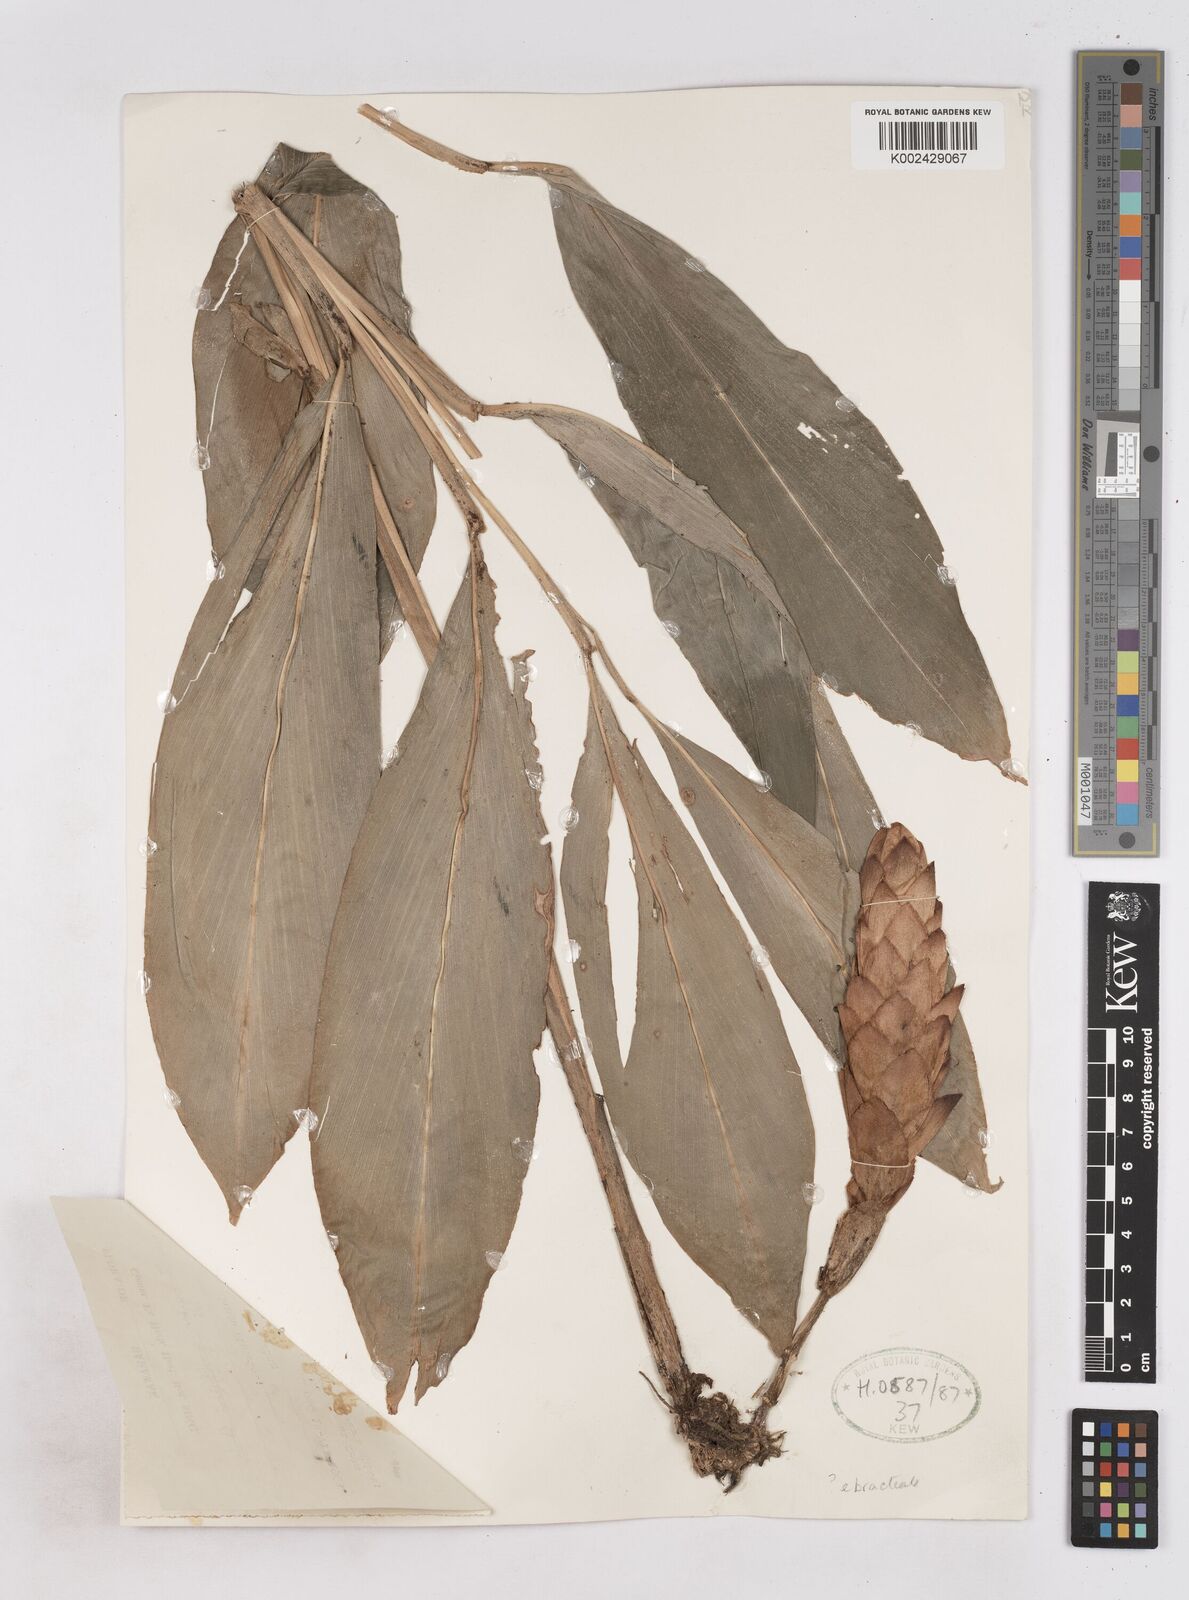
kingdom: Plantae
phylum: Tracheophyta
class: Liliopsida
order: Zingiberales
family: Zingiberaceae
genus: Zingiber
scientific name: Zingiber griffithii
